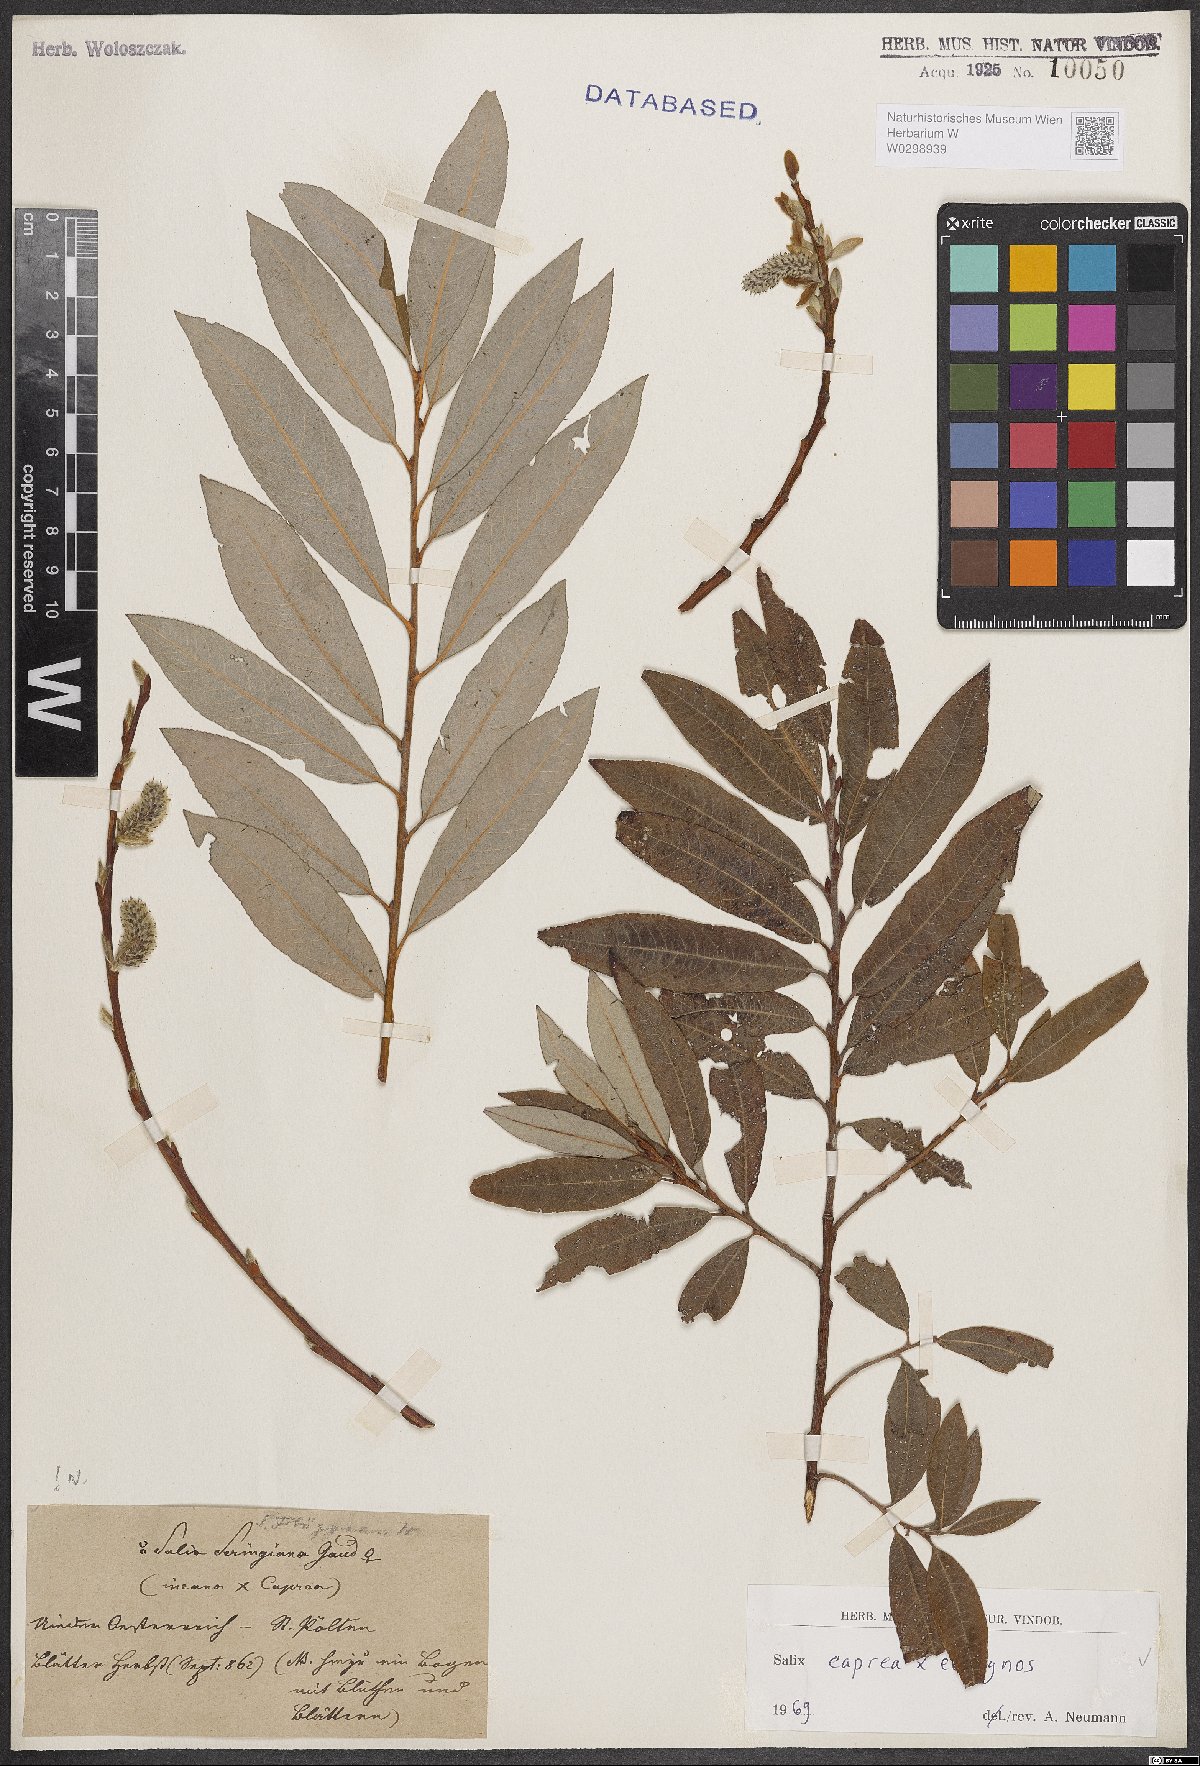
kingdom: Plantae
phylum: Tracheophyta
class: Magnoliopsida
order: Malpighiales
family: Salicaceae
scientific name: Salicaceae
